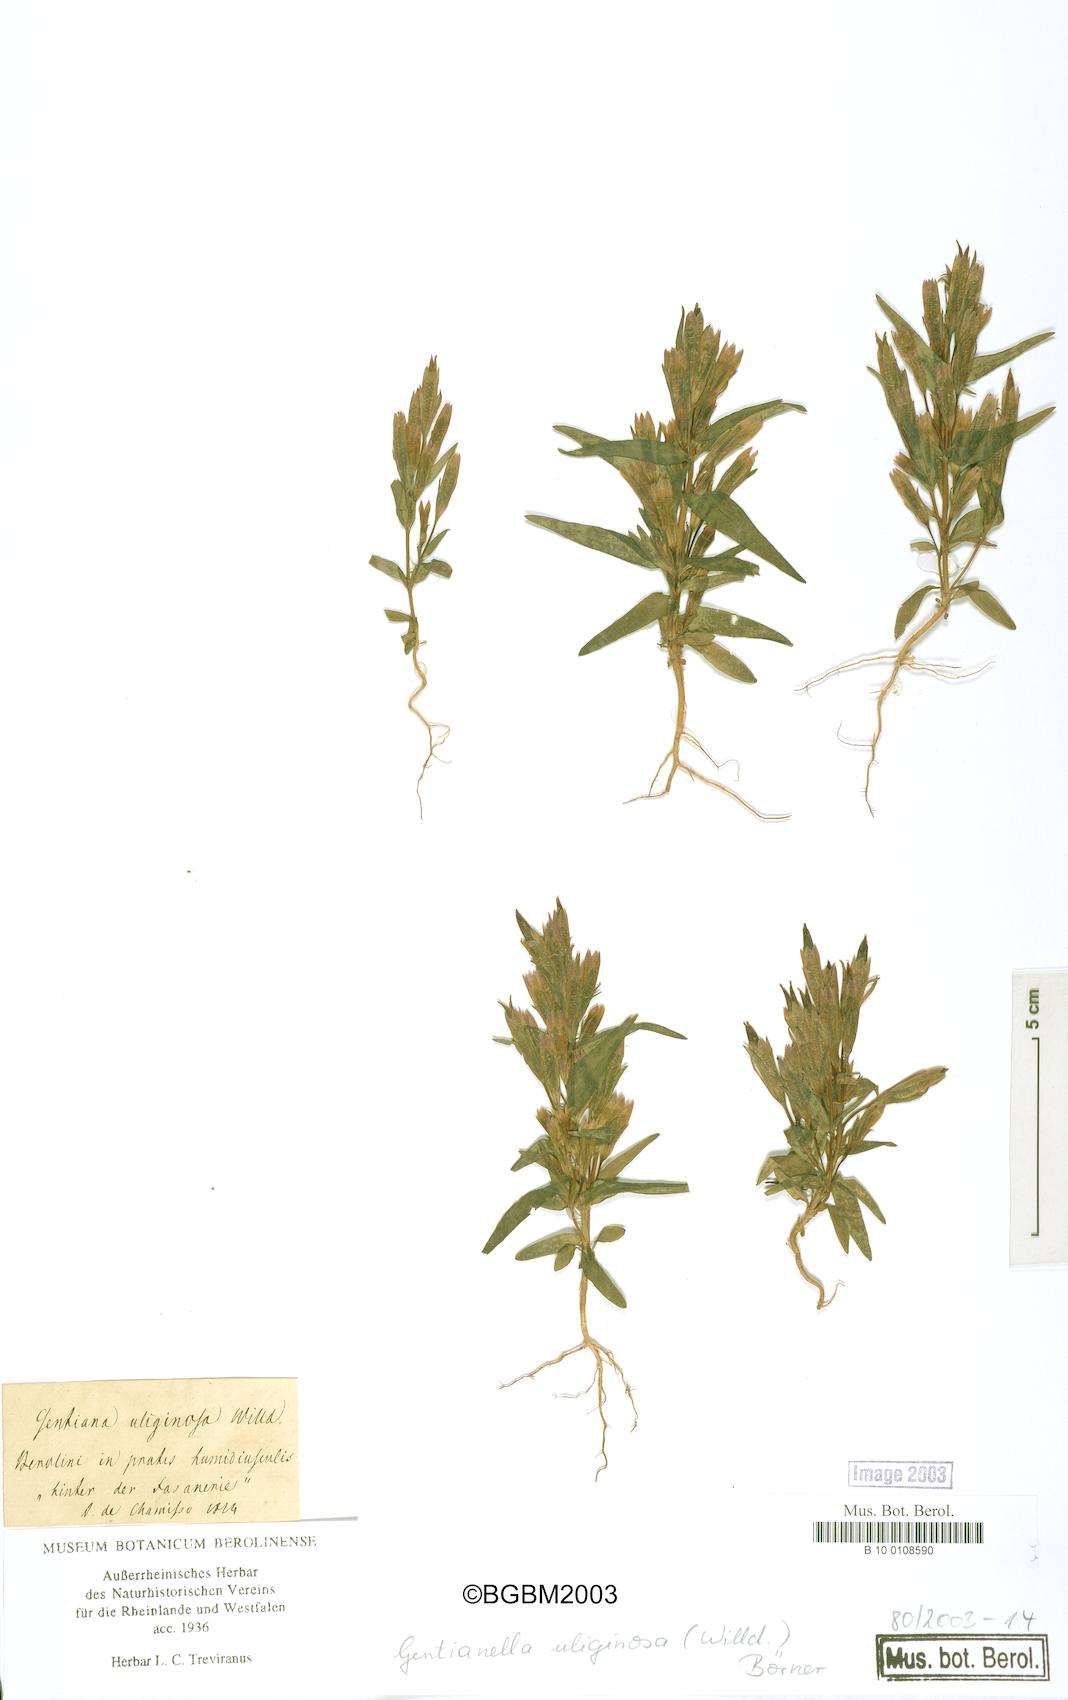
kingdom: Plantae
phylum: Tracheophyta
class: Magnoliopsida
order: Gentianales
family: Gentianaceae
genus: Gentianella
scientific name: Gentianella uliginosa
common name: Dune gentian
